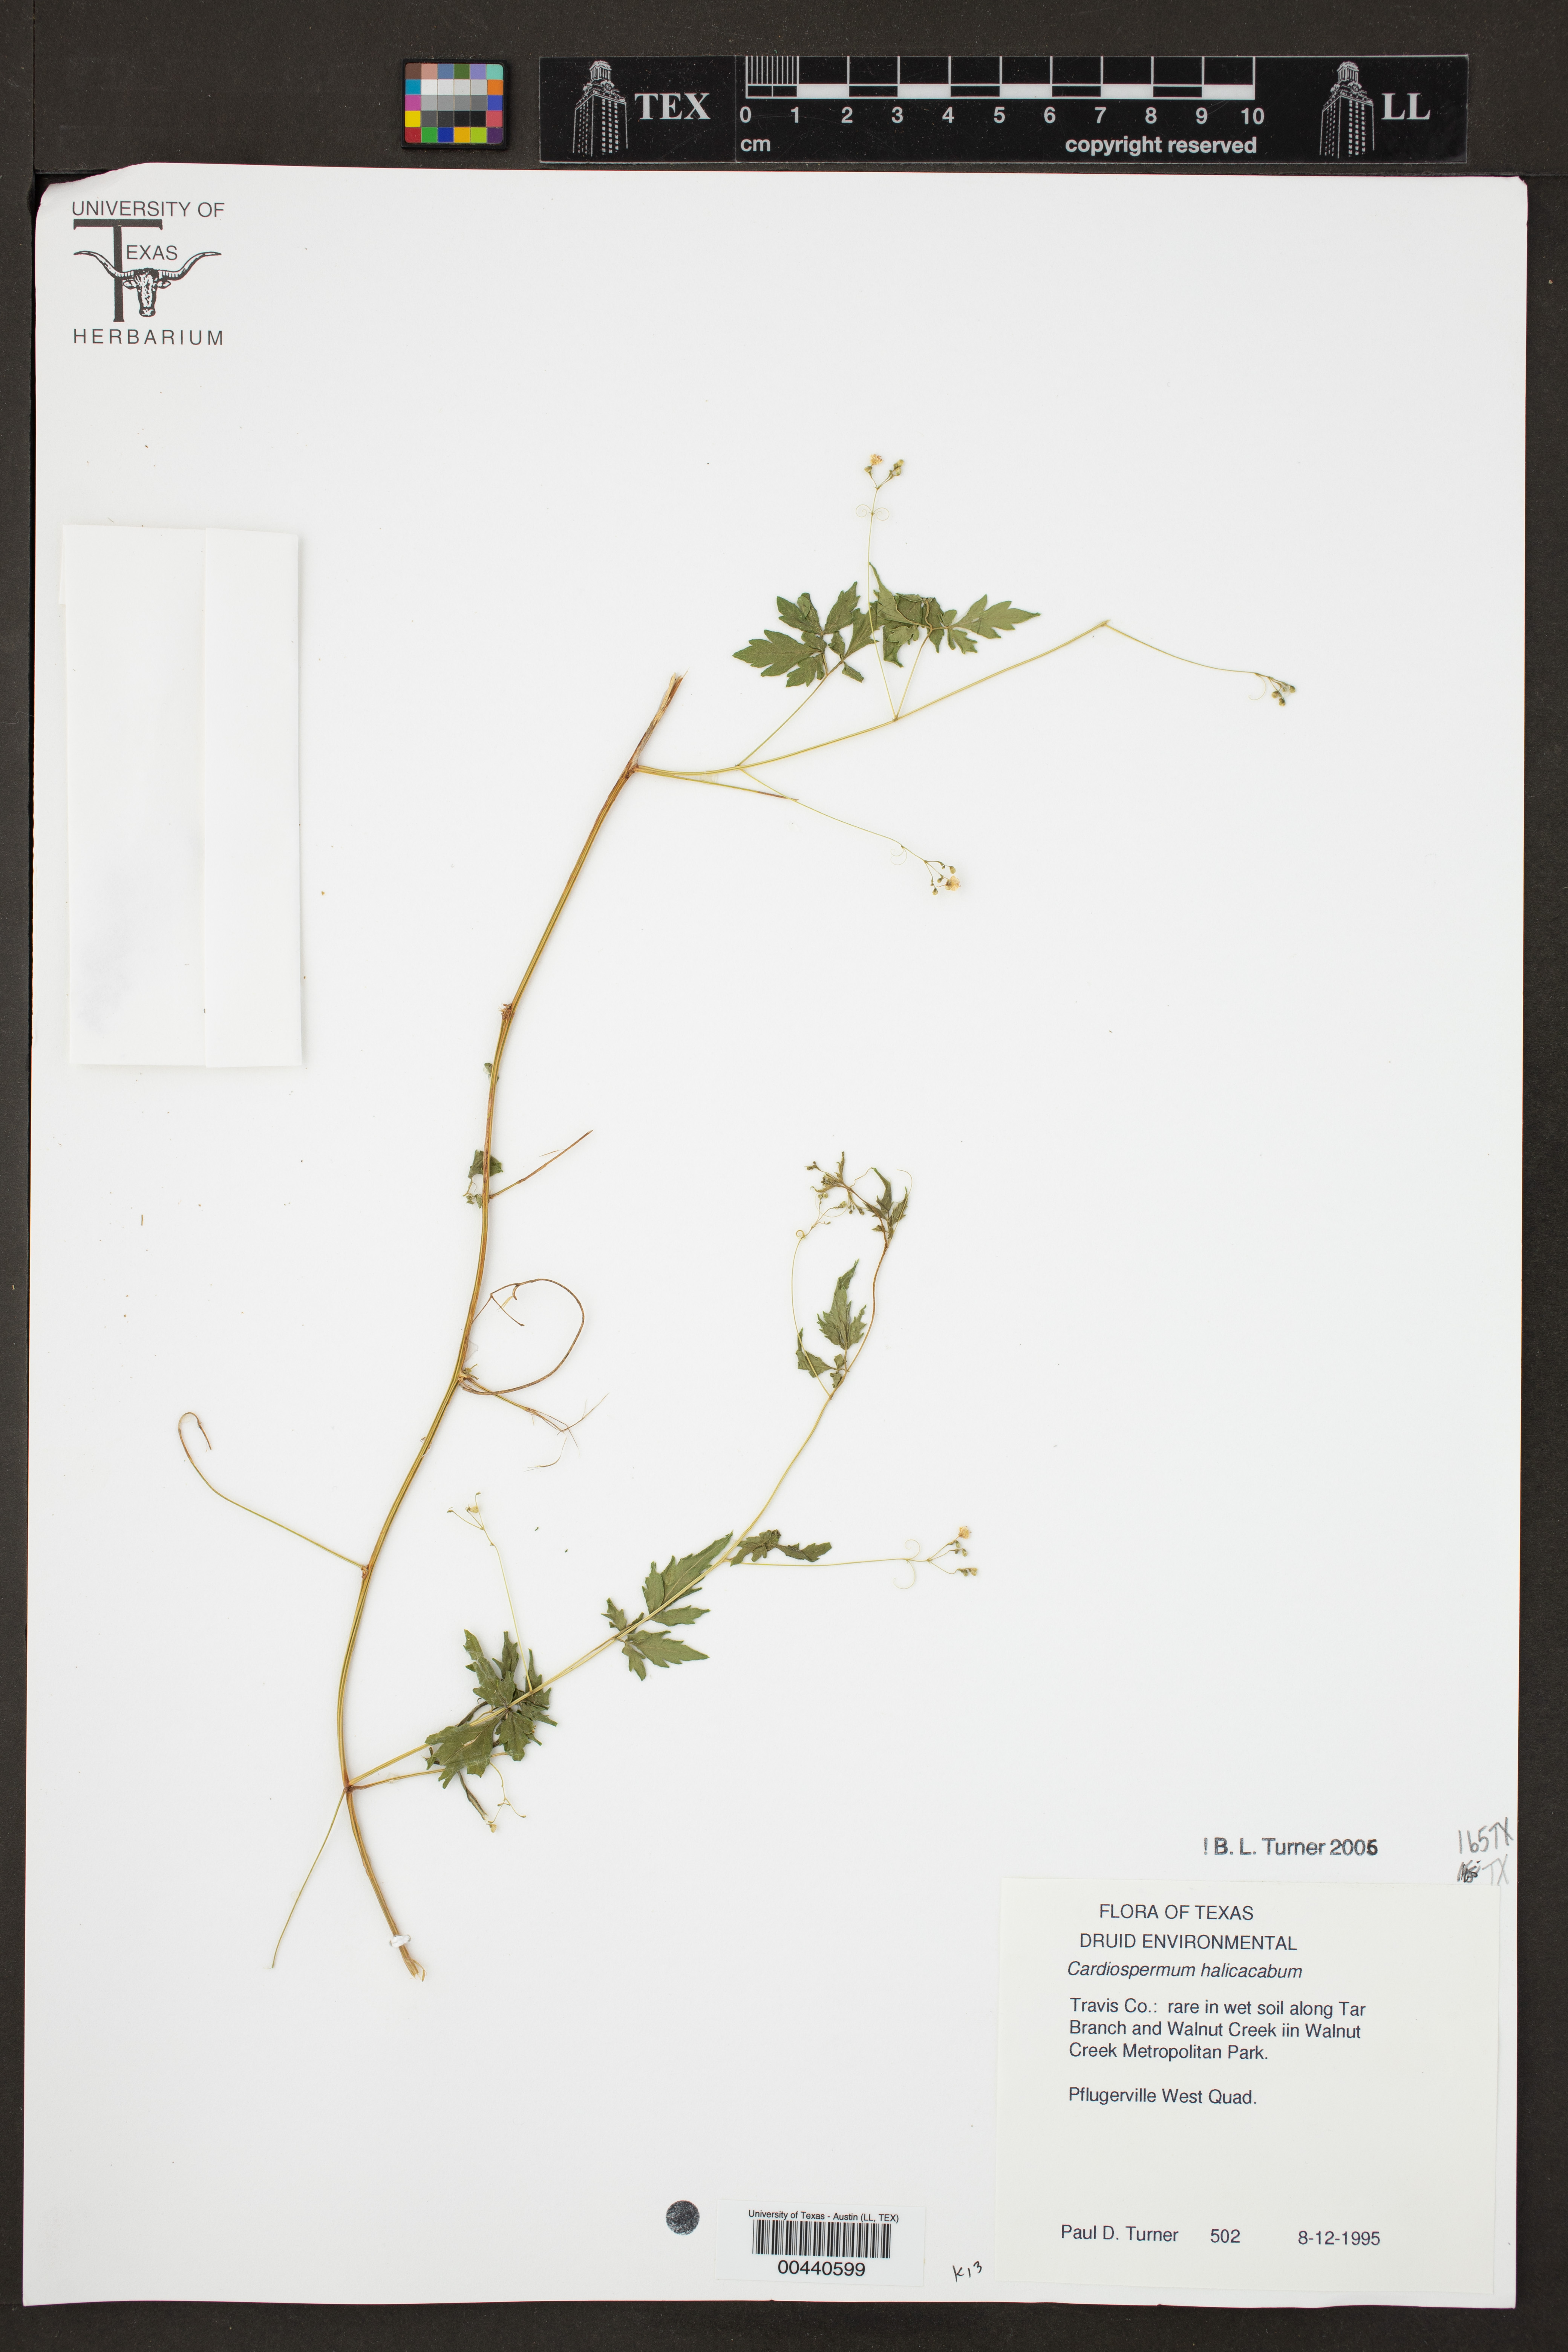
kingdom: Plantae
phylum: Tracheophyta
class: Magnoliopsida
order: Sapindales
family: Sapindaceae
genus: Cardiospermum
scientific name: Cardiospermum halicacabum
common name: Balloon vine
